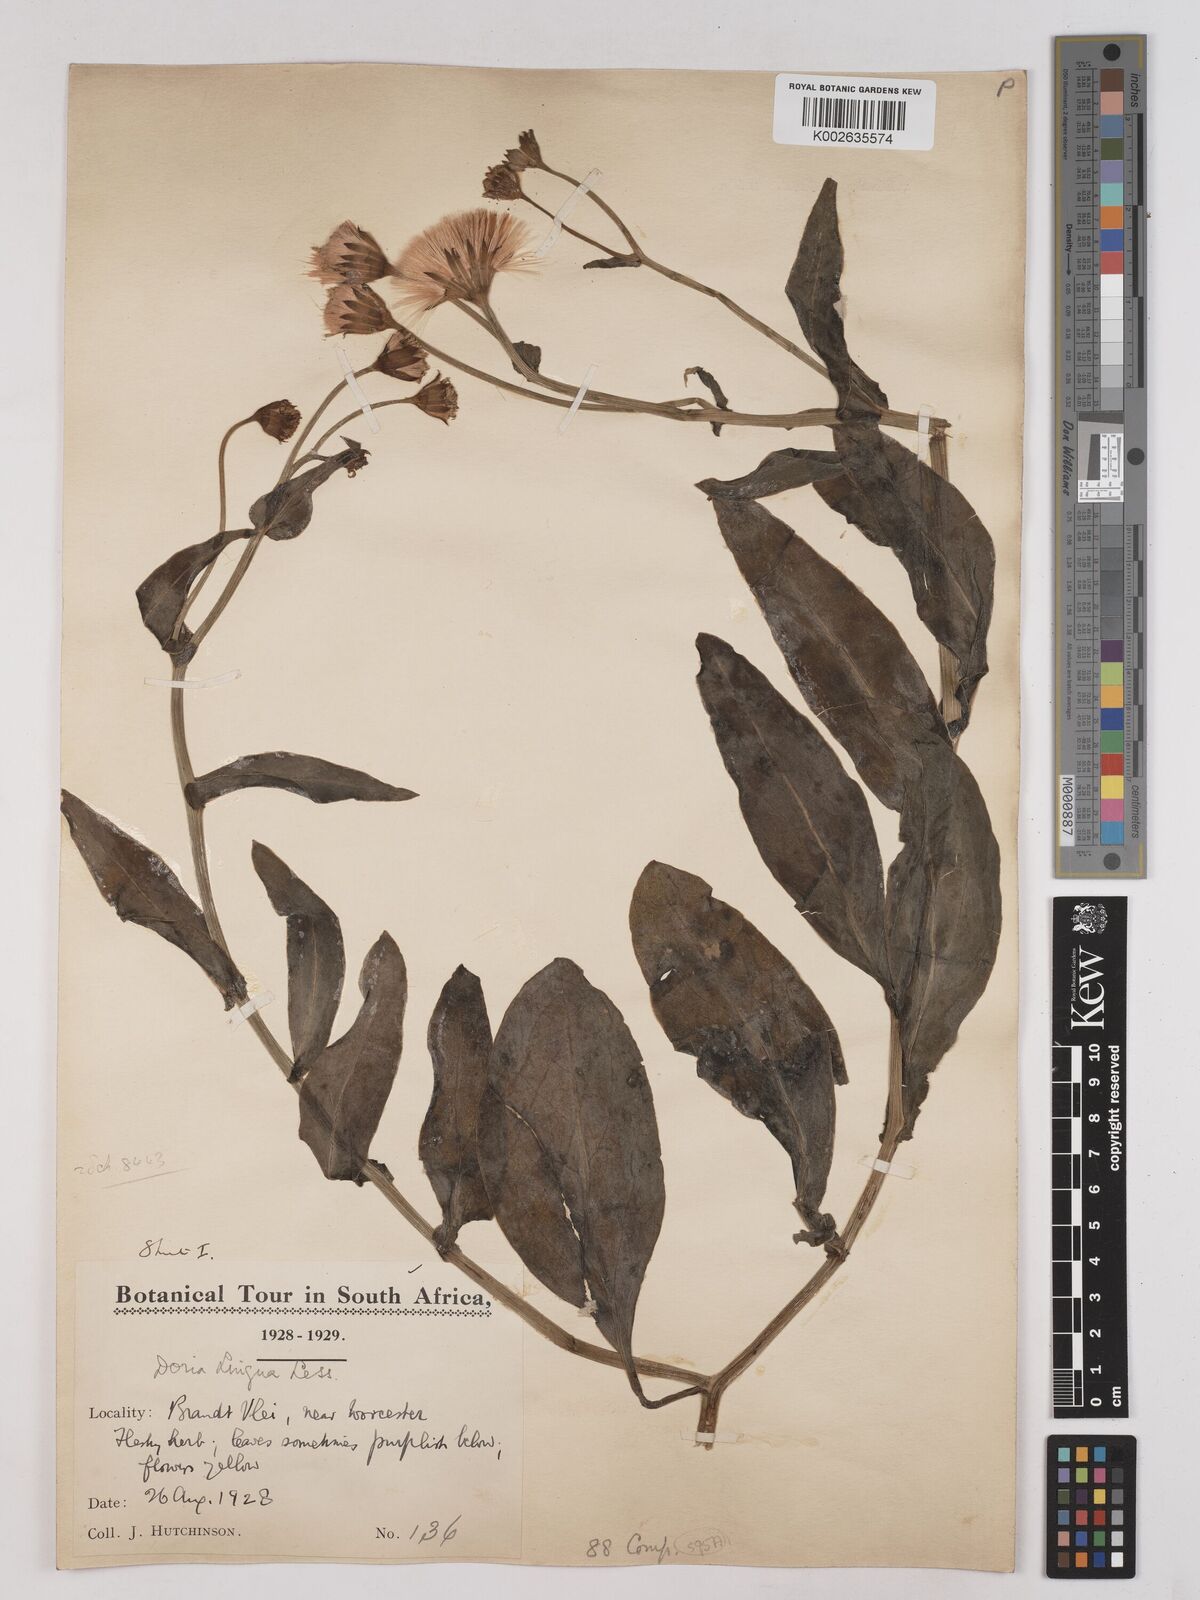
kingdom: Plantae
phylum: Tracheophyta
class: Magnoliopsida
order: Asterales
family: Asteraceae
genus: Othonna
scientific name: Othonna bulbosa
